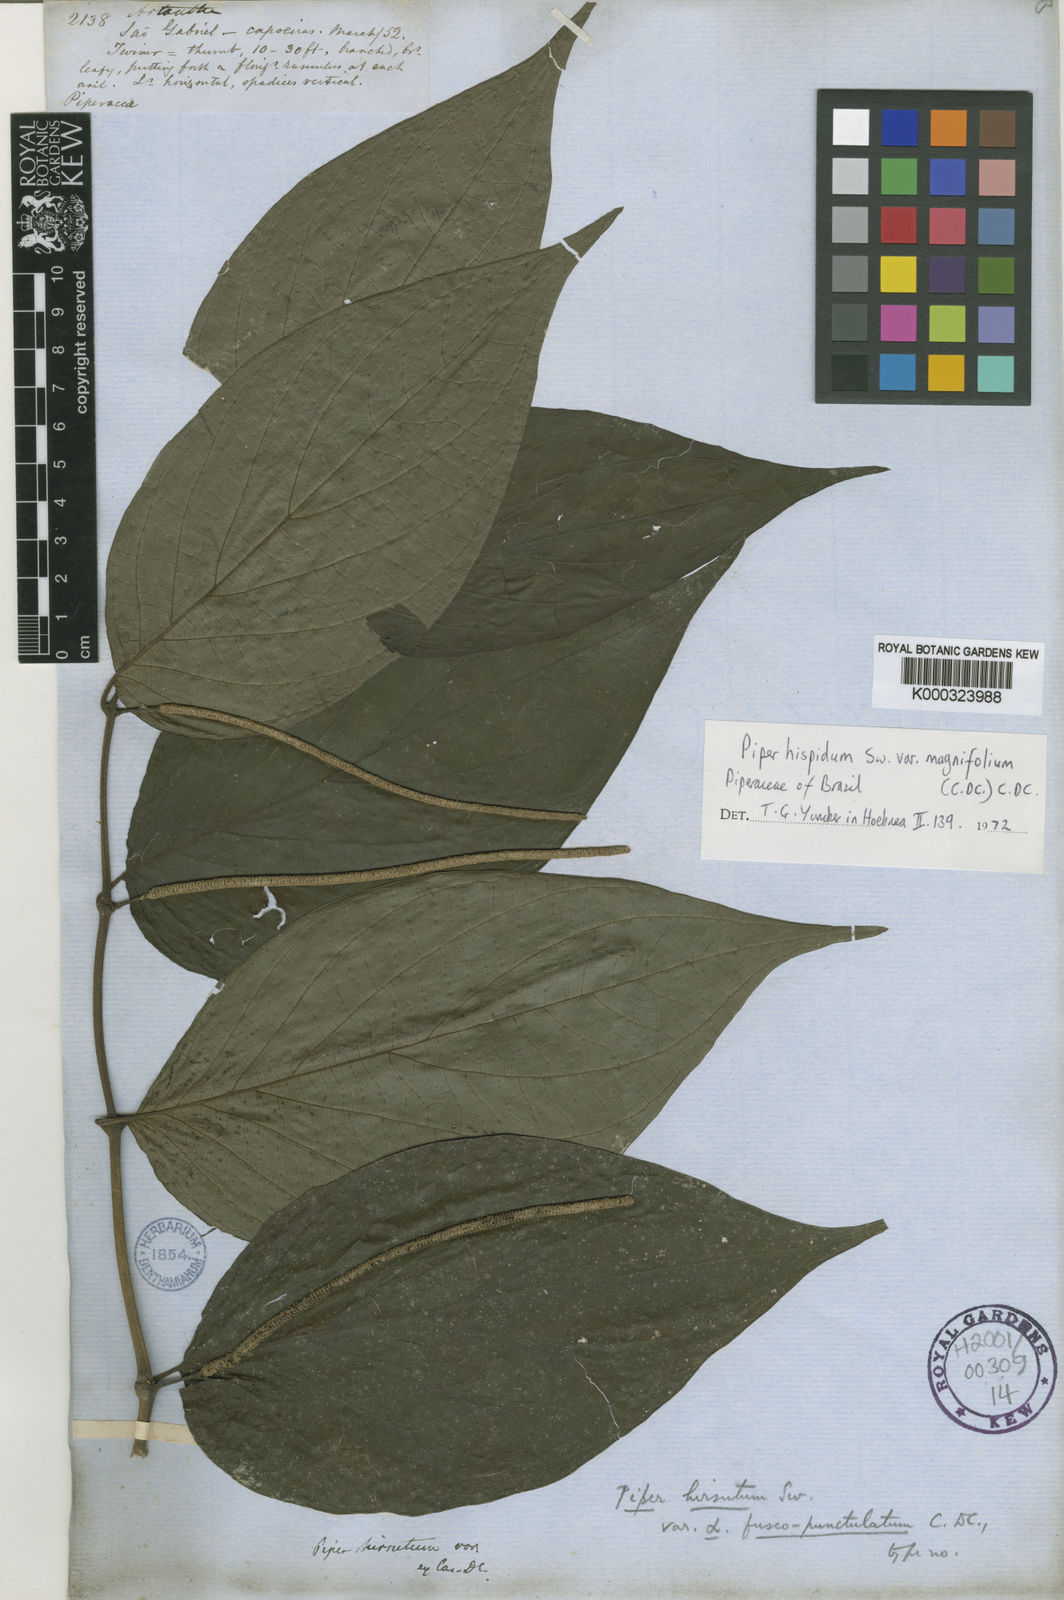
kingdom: Plantae
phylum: Tracheophyta
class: Magnoliopsida
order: Piperales
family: Piperaceae
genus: Piper
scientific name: Piper hispidum
